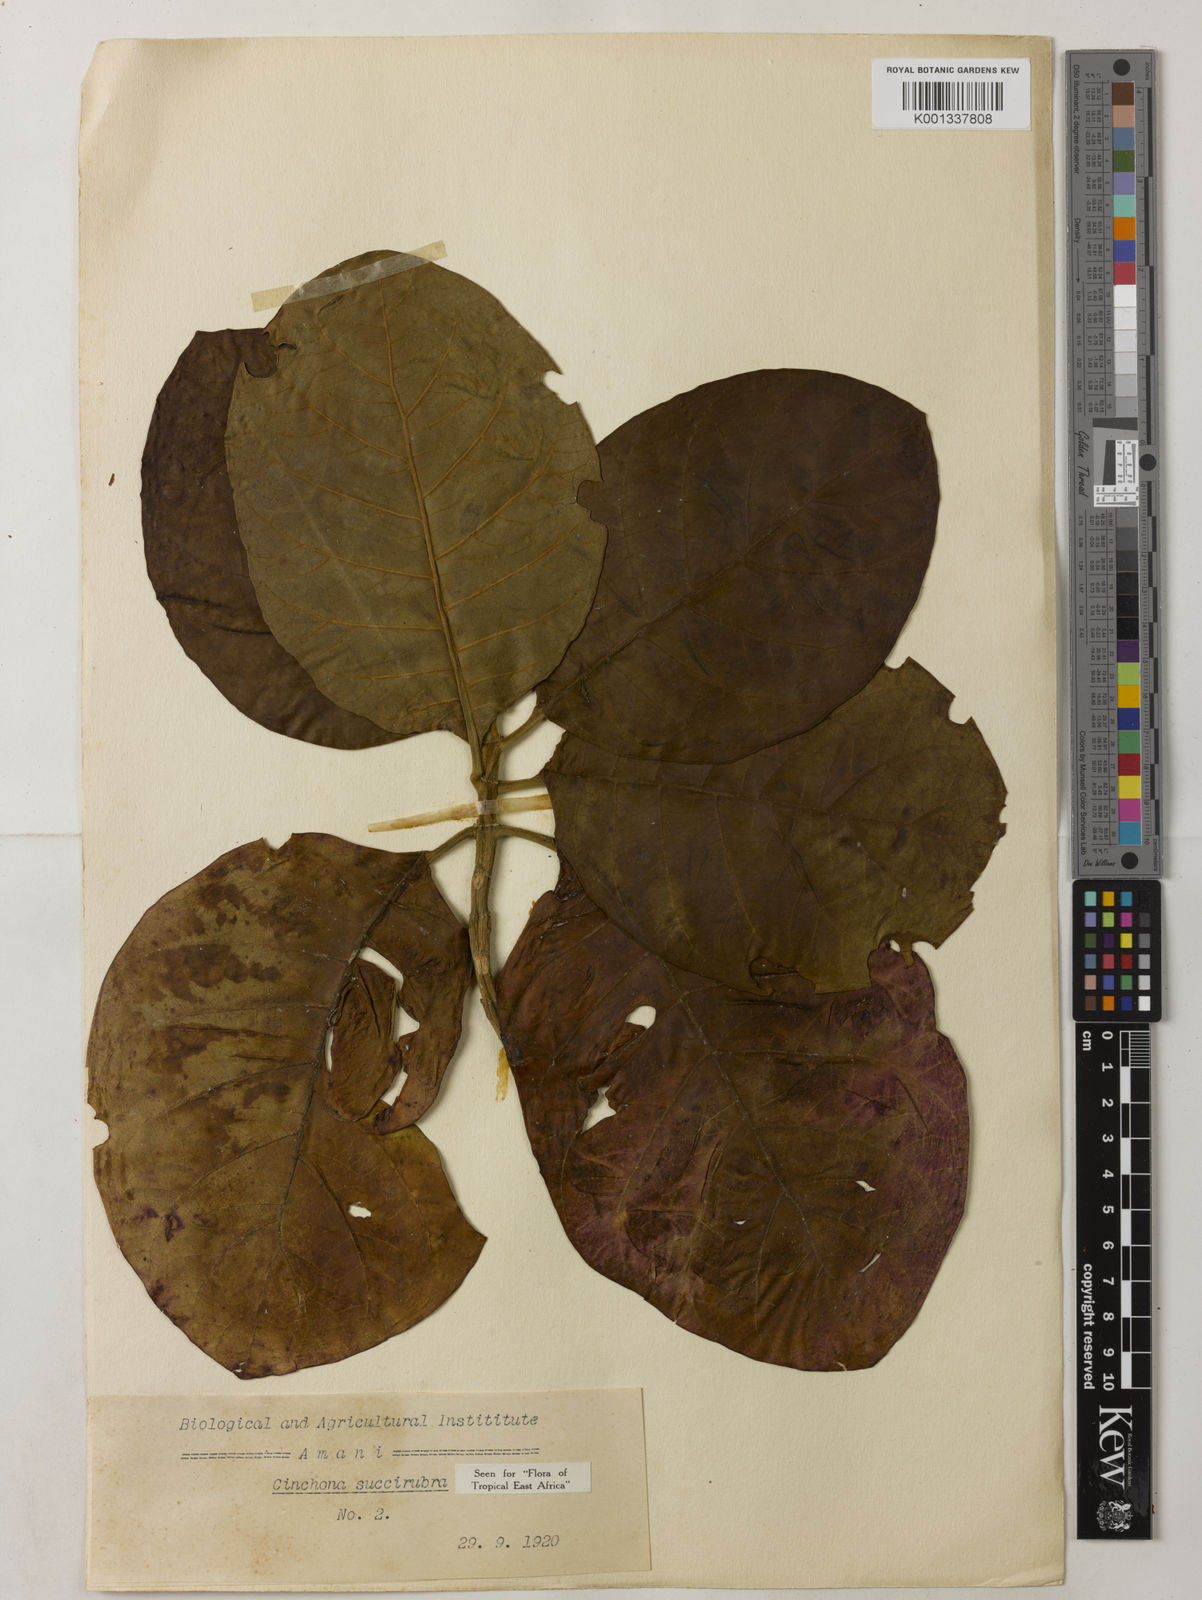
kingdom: Plantae
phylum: Tracheophyta
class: Magnoliopsida
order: Gentianales
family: Rubiaceae
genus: Cinchona
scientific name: Cinchona pubescens
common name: Quinine
